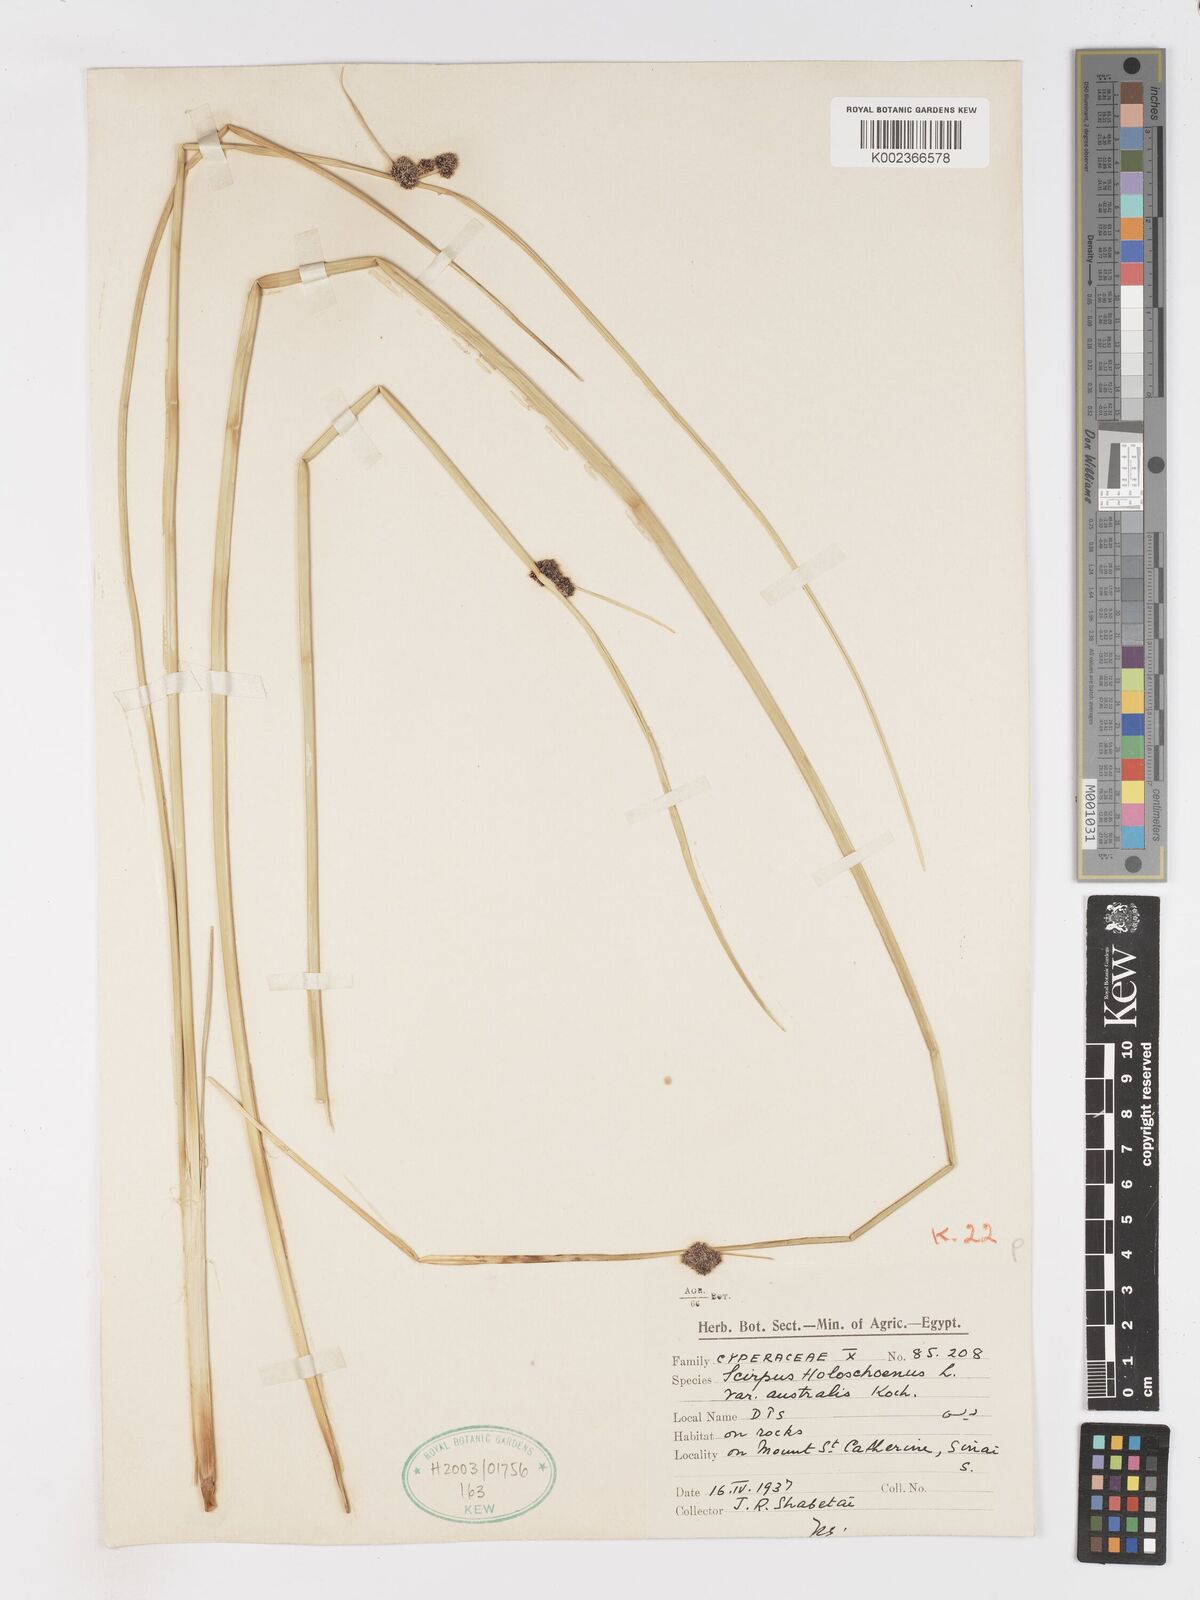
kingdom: Plantae
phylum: Tracheophyta
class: Liliopsida
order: Poales
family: Cyperaceae
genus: Scirpoides
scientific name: Scirpoides holoschoenus
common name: Round-headed club-rush
